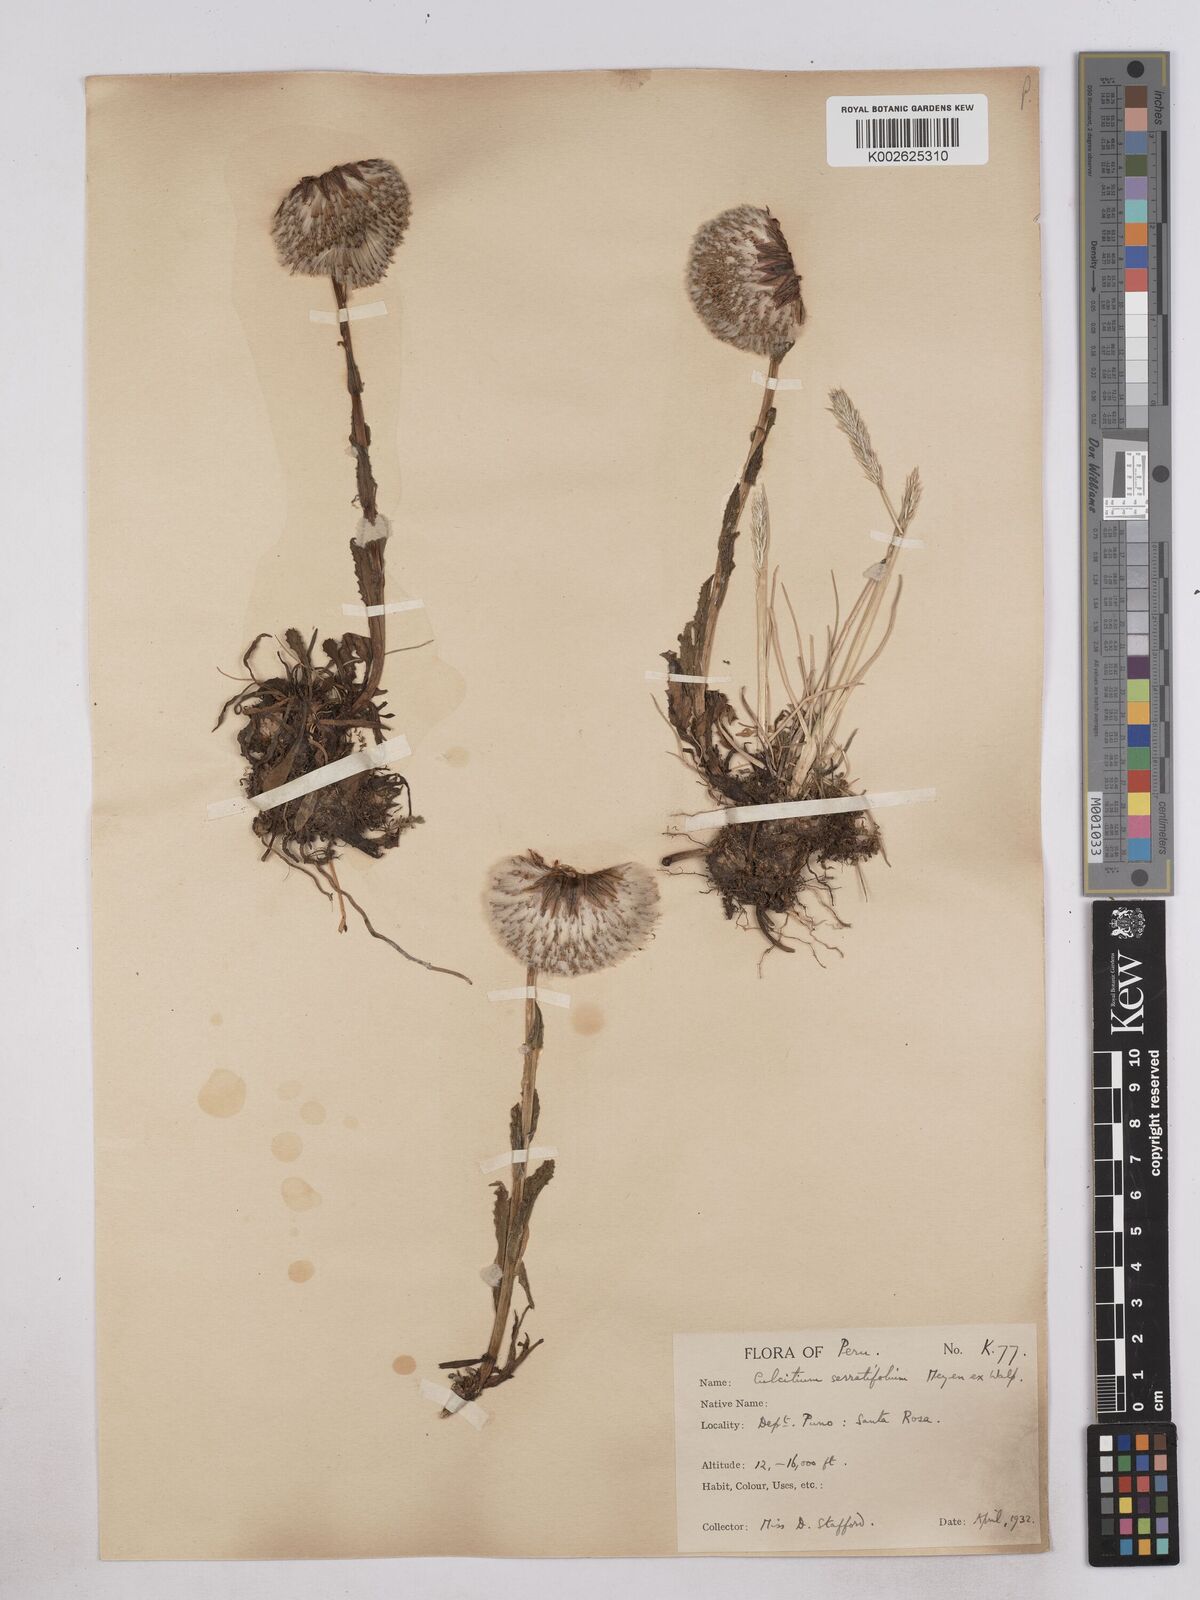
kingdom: Plantae
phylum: Tracheophyta
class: Magnoliopsida
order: Asterales
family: Asteraceae
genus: Senecio
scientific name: Senecio serratifolius
